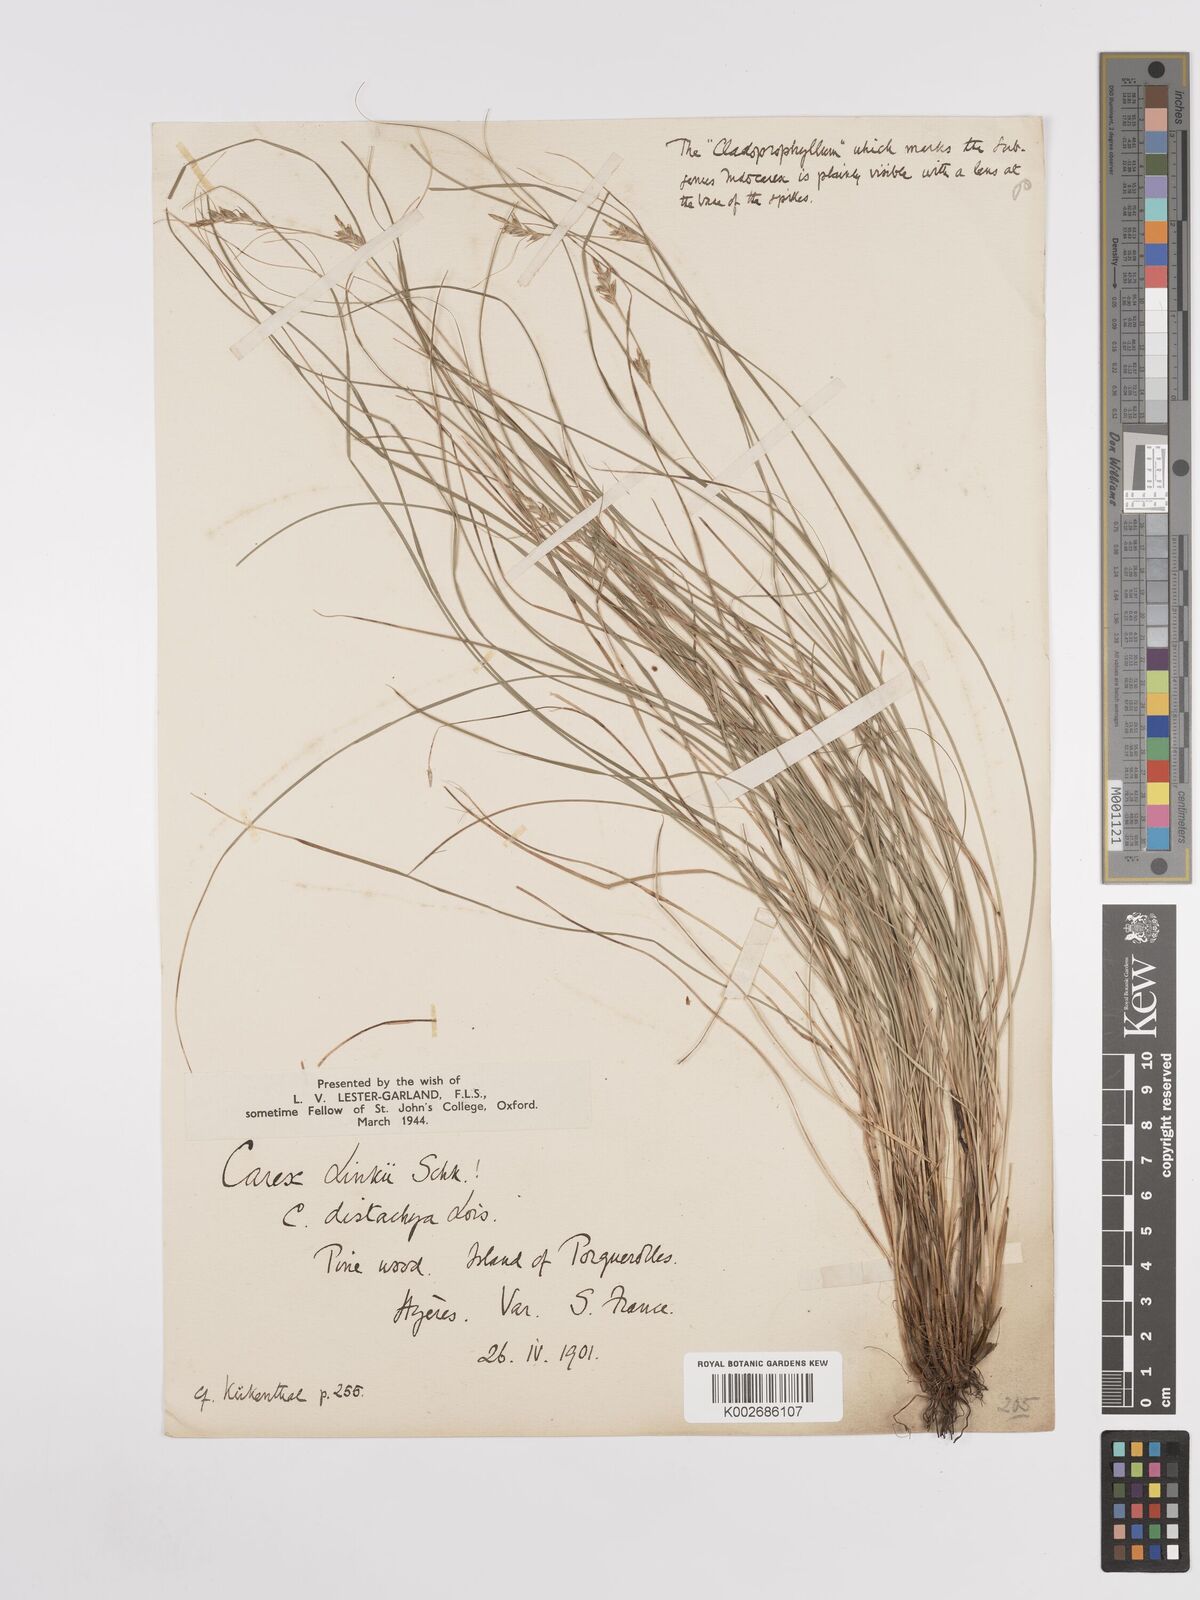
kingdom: Plantae
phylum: Tracheophyta
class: Liliopsida
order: Poales
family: Cyperaceae
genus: Carex
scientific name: Carex distachya
